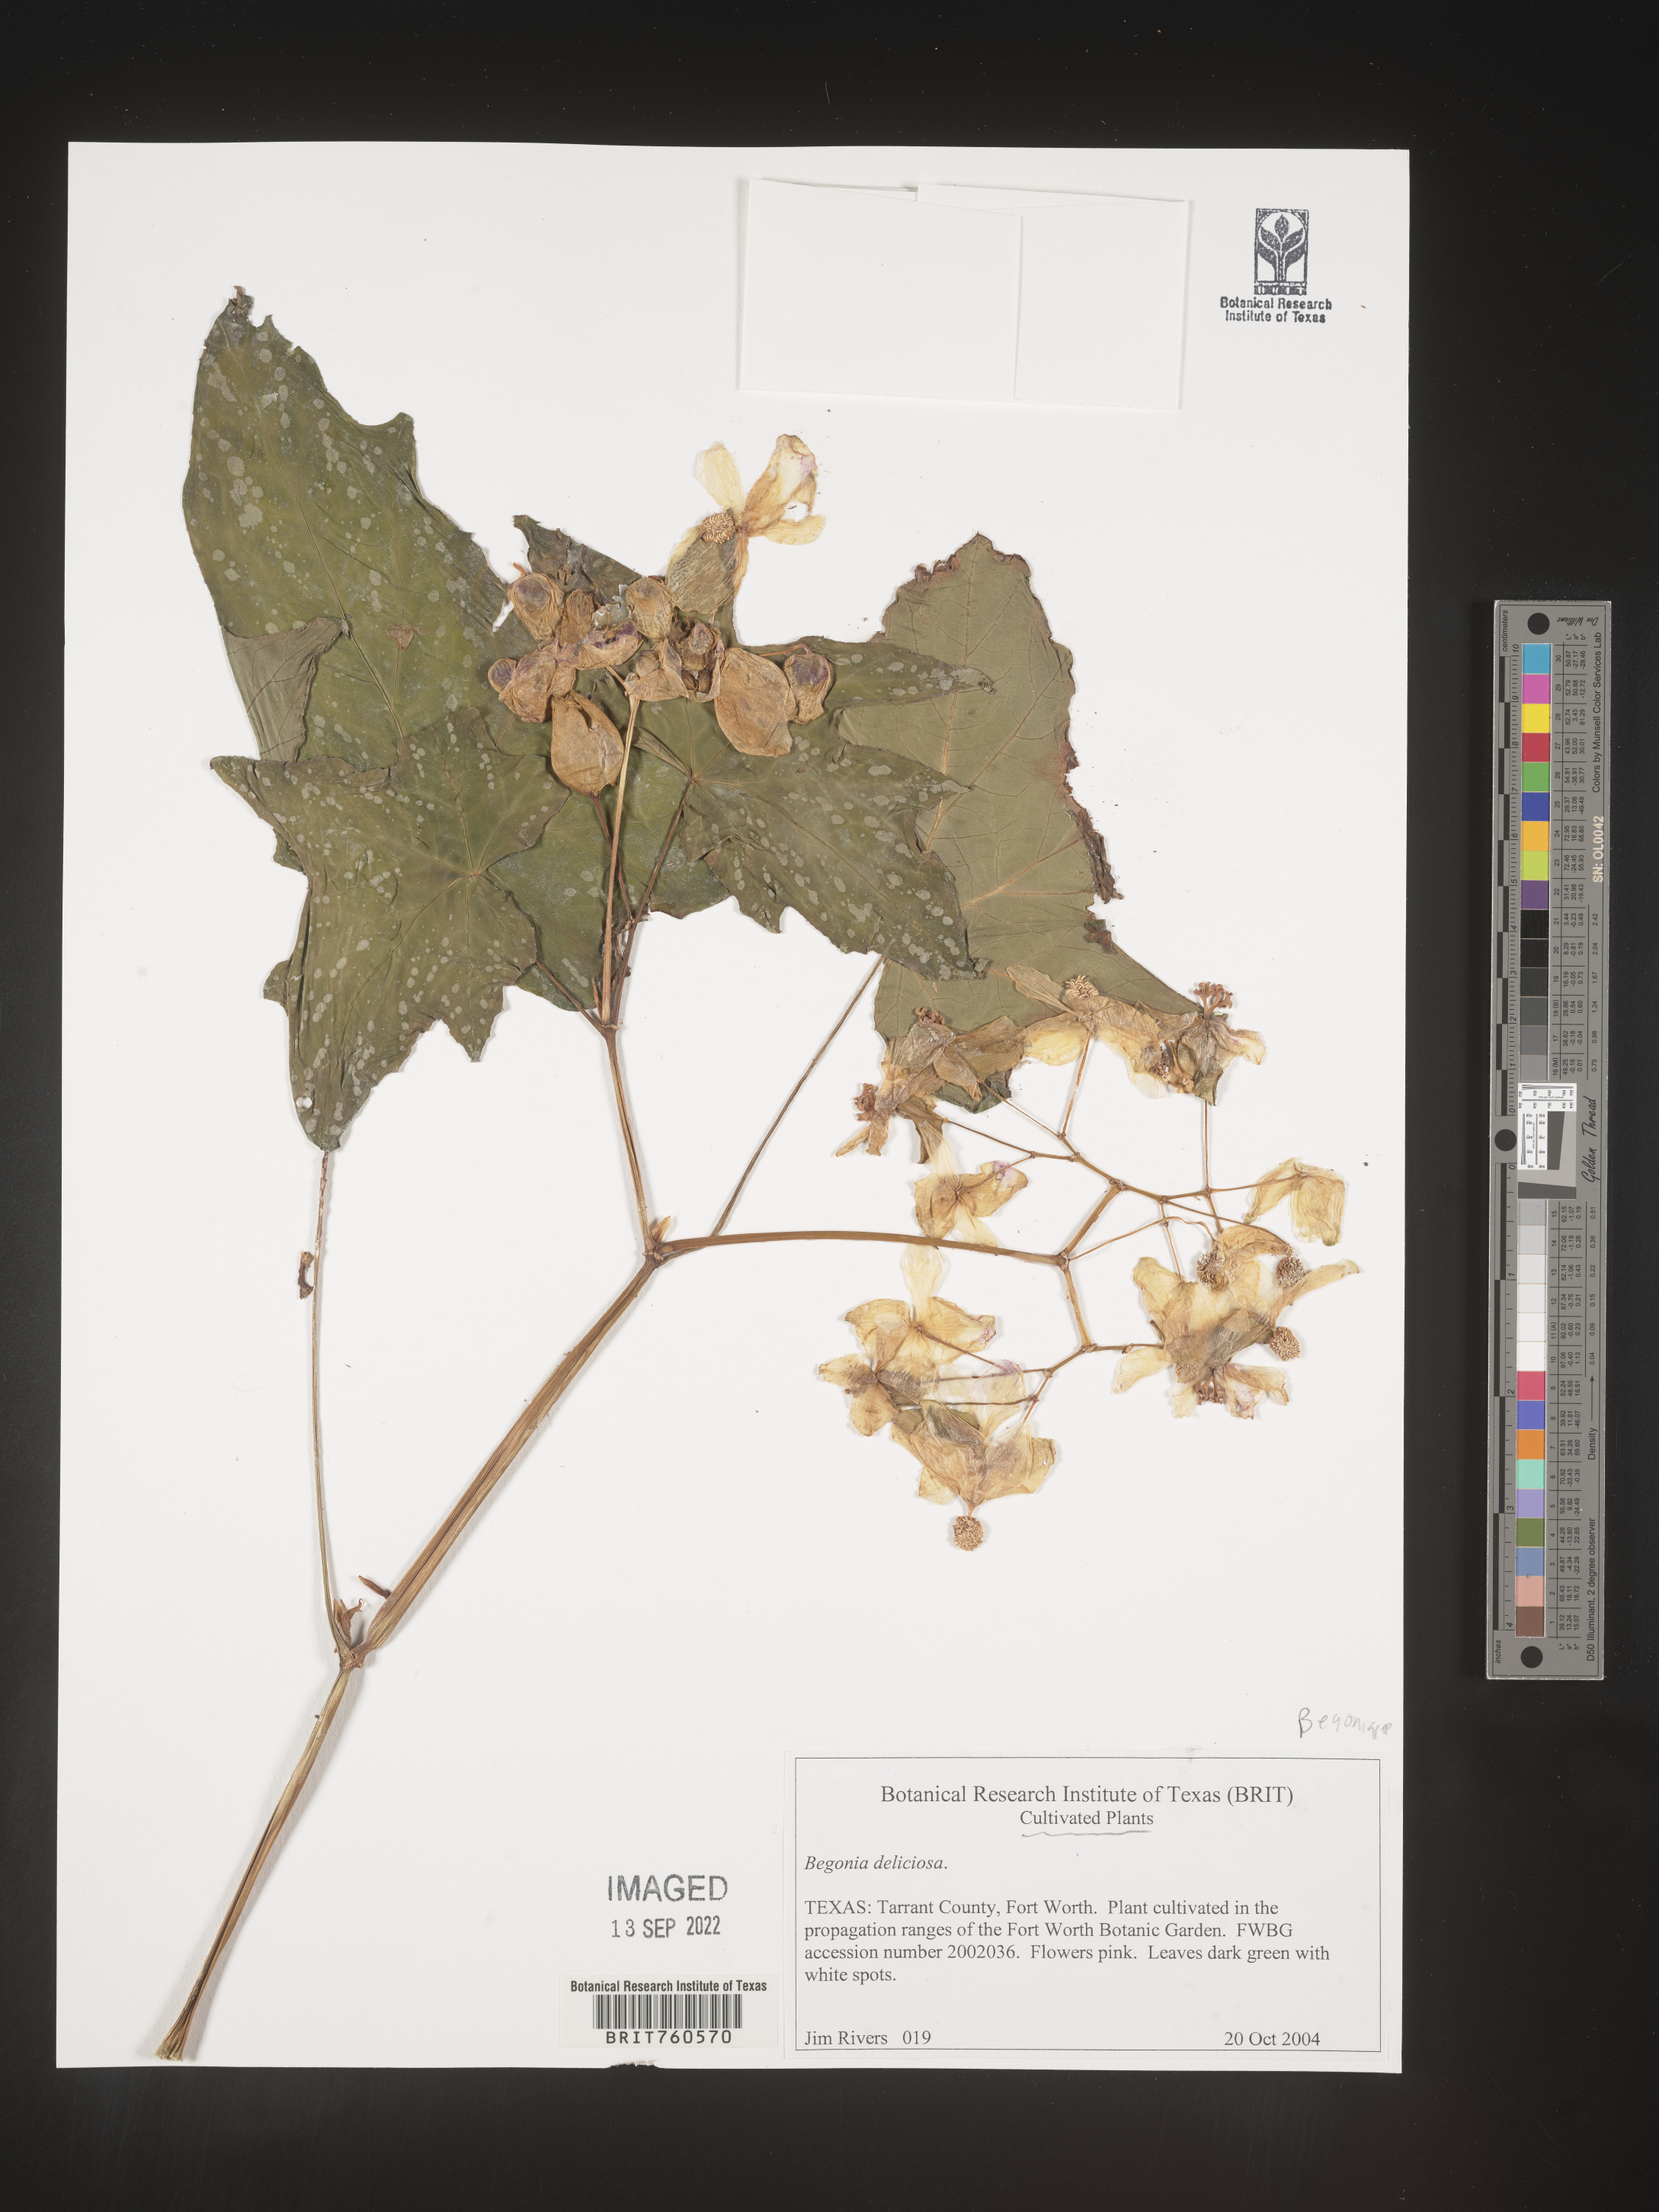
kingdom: Plantae
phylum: Tracheophyta
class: Magnoliopsida
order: Cucurbitales
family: Begoniaceae
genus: Begonia
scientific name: Begonia
